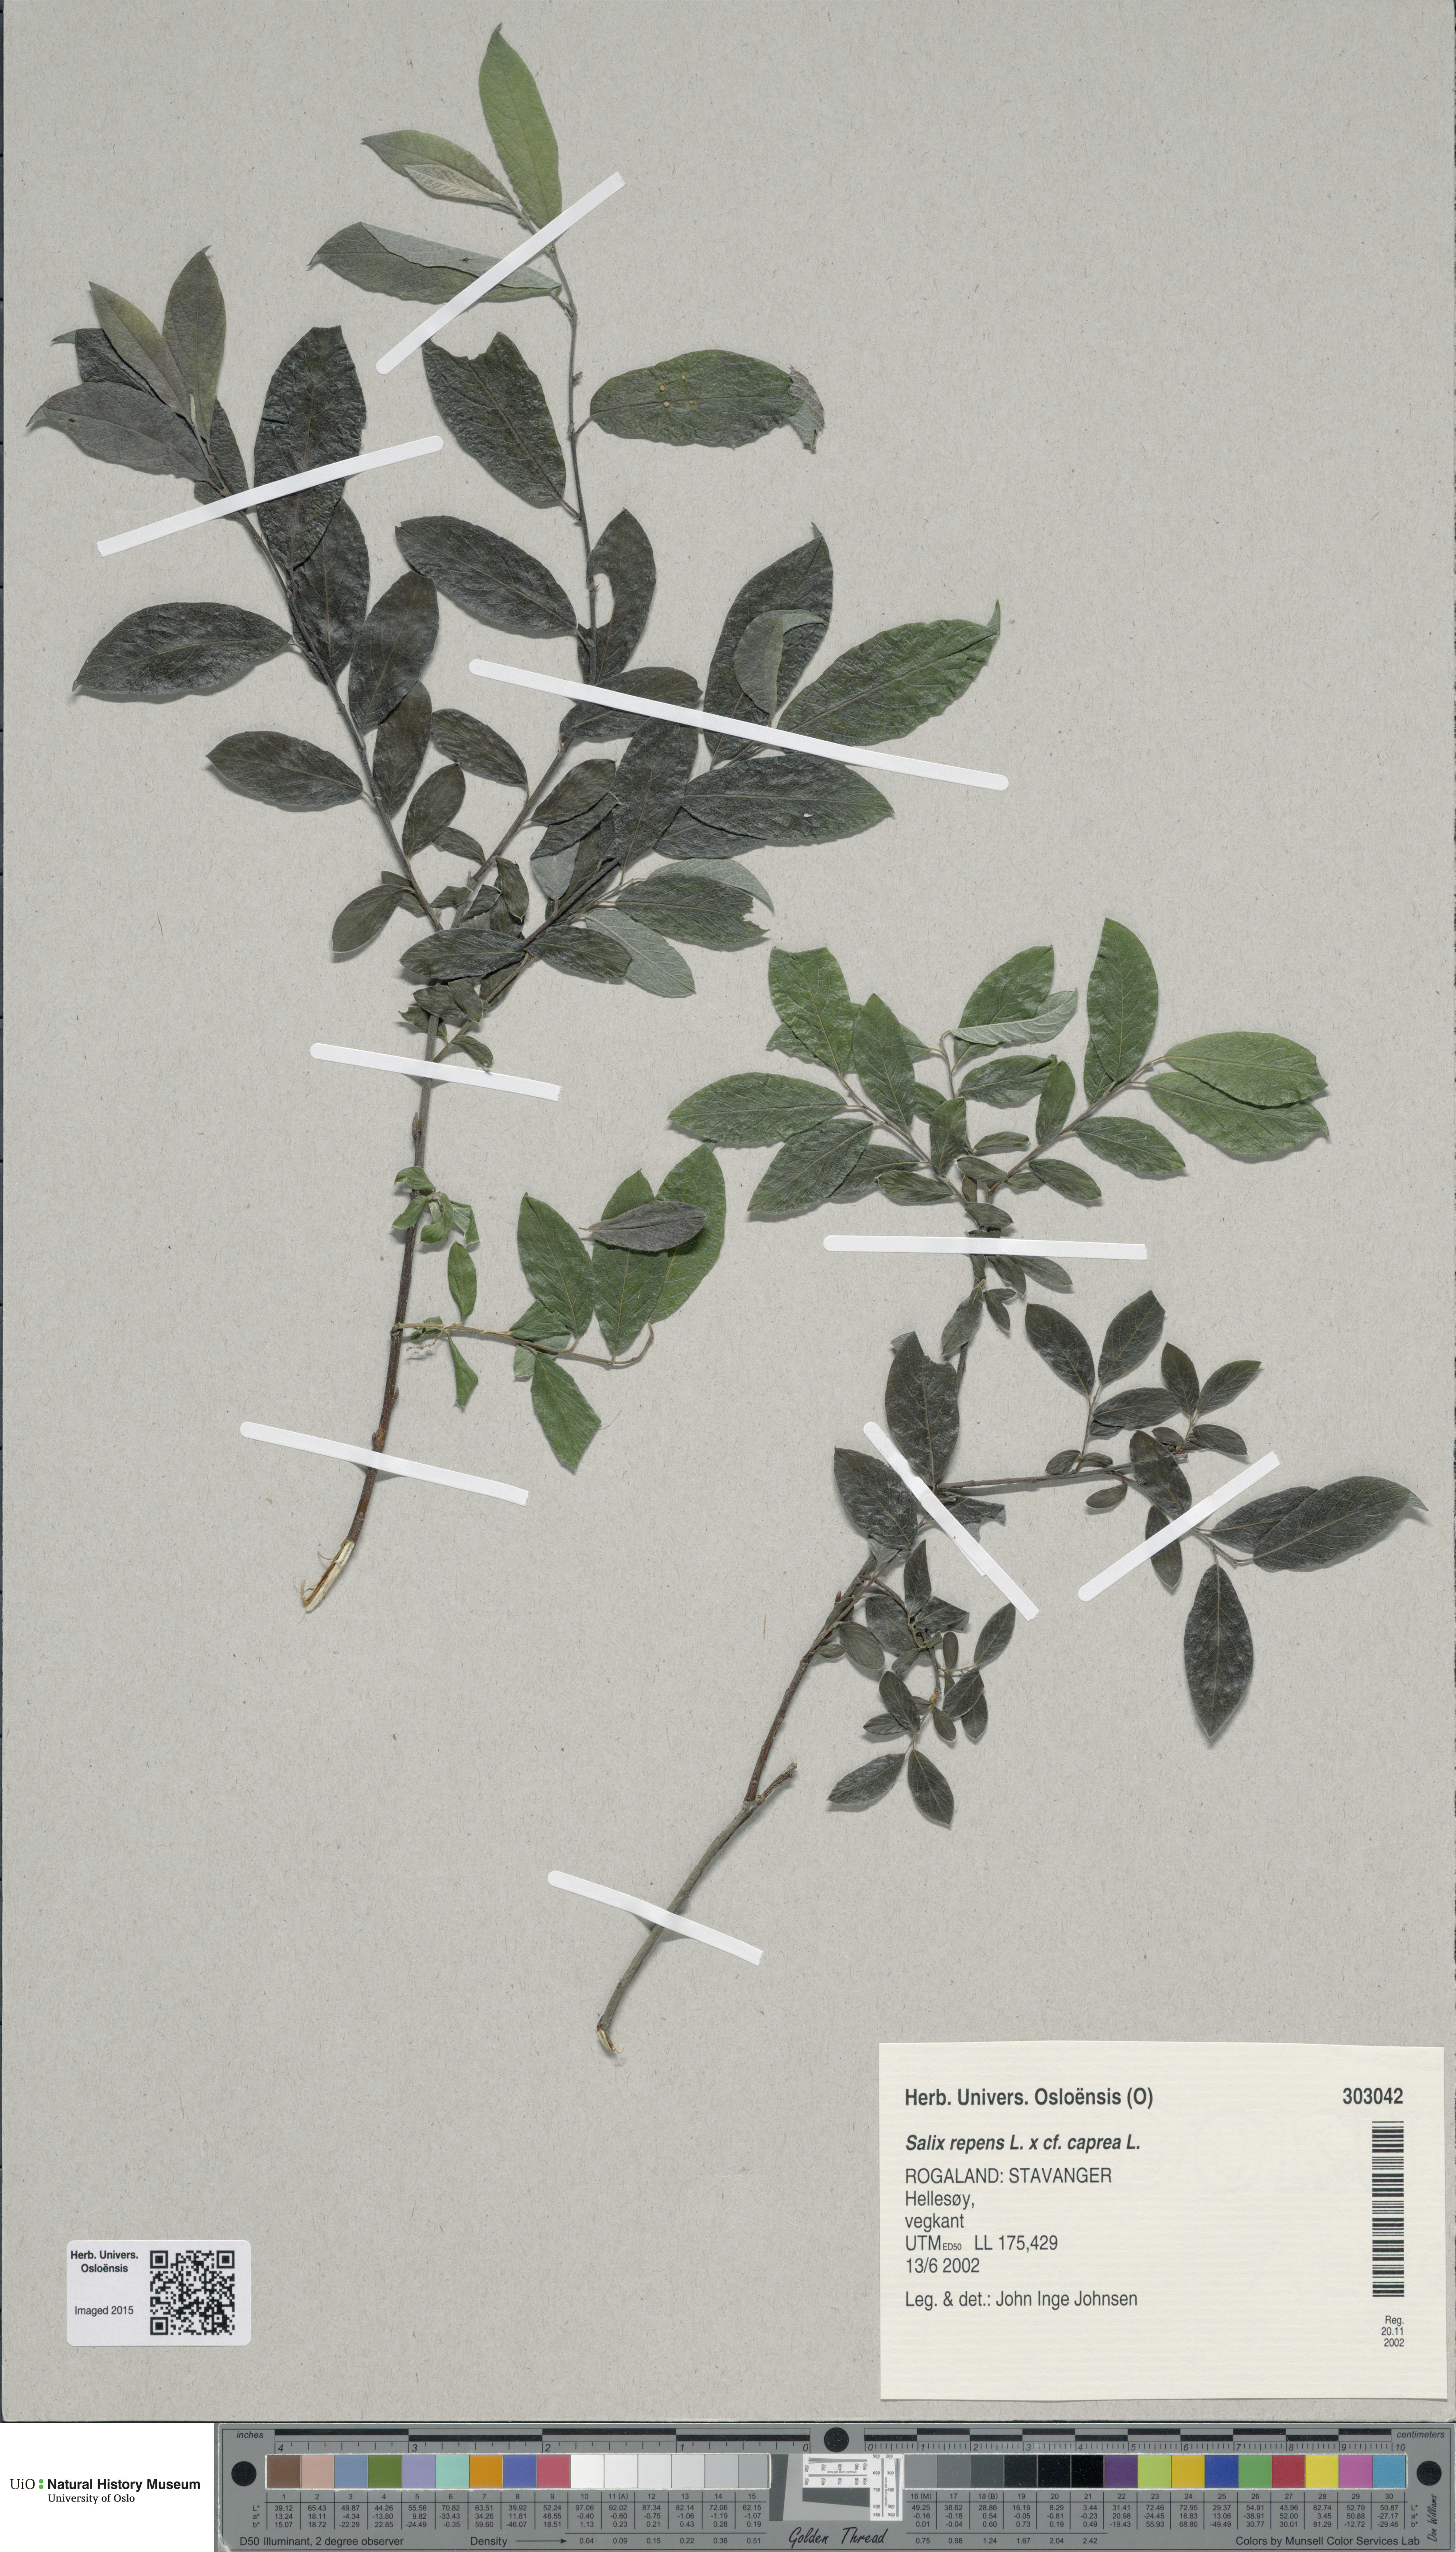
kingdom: Plantae
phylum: Tracheophyta
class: Magnoliopsida
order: Malpighiales
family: Salicaceae
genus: Salix
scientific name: Salix
